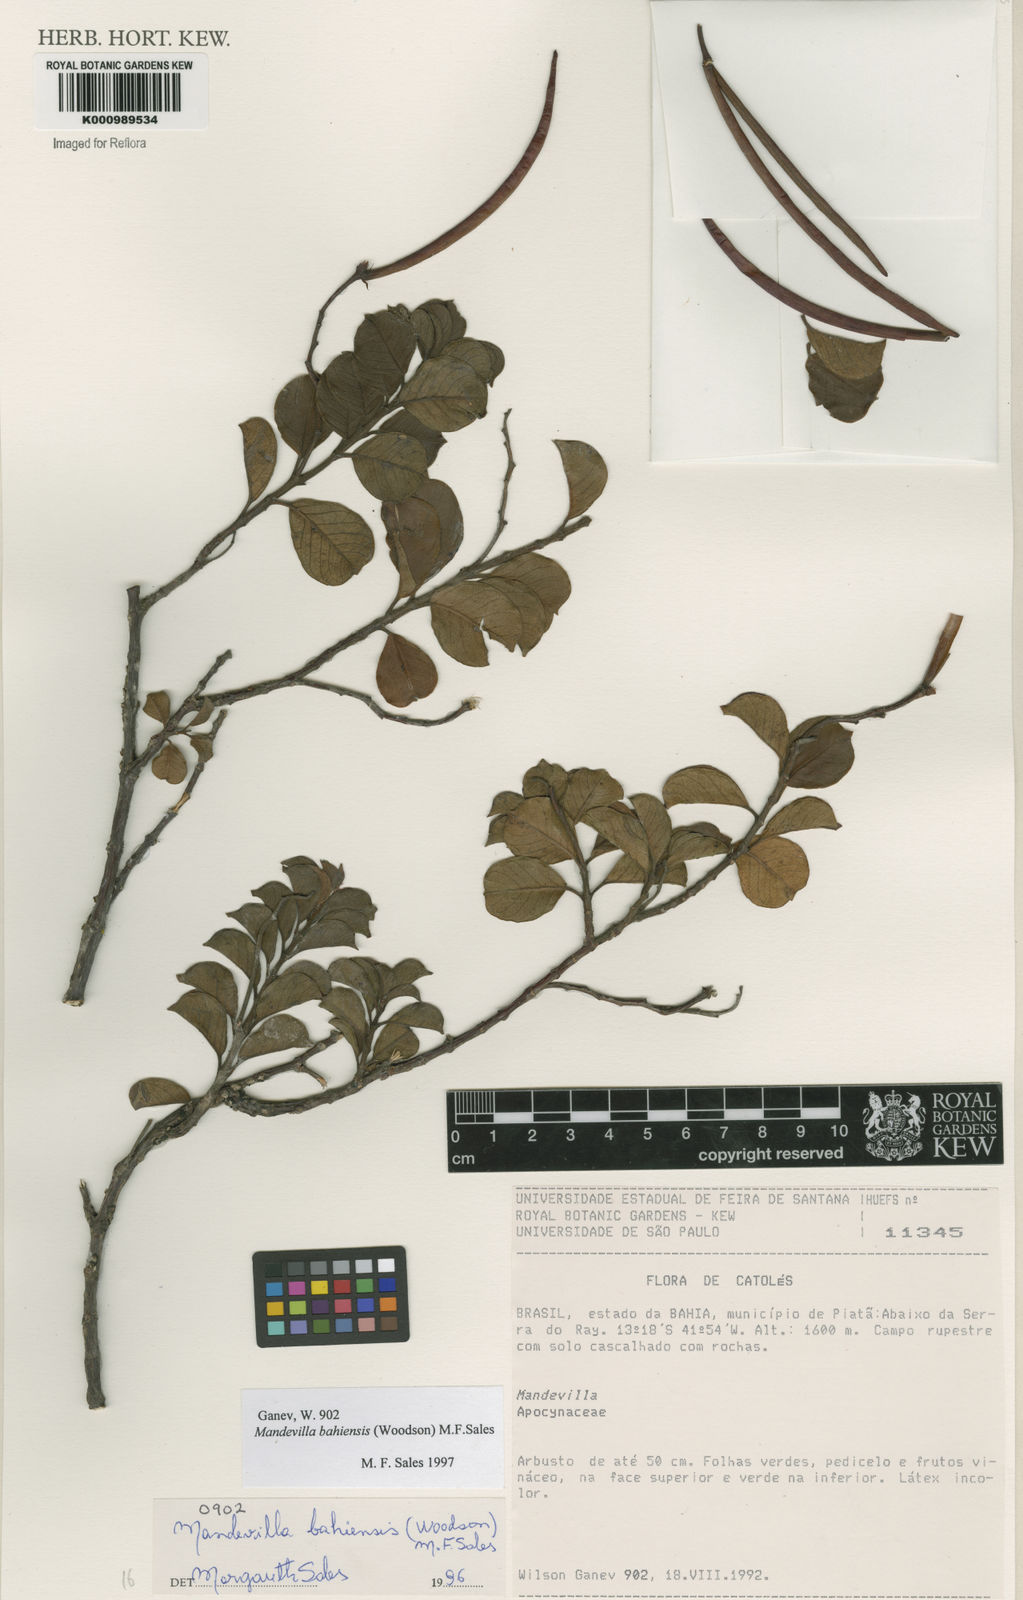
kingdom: Plantae
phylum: Tracheophyta
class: Magnoliopsida
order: Gentianales
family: Apocynaceae
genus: Mandevilla
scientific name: Mandevilla bahiensis
